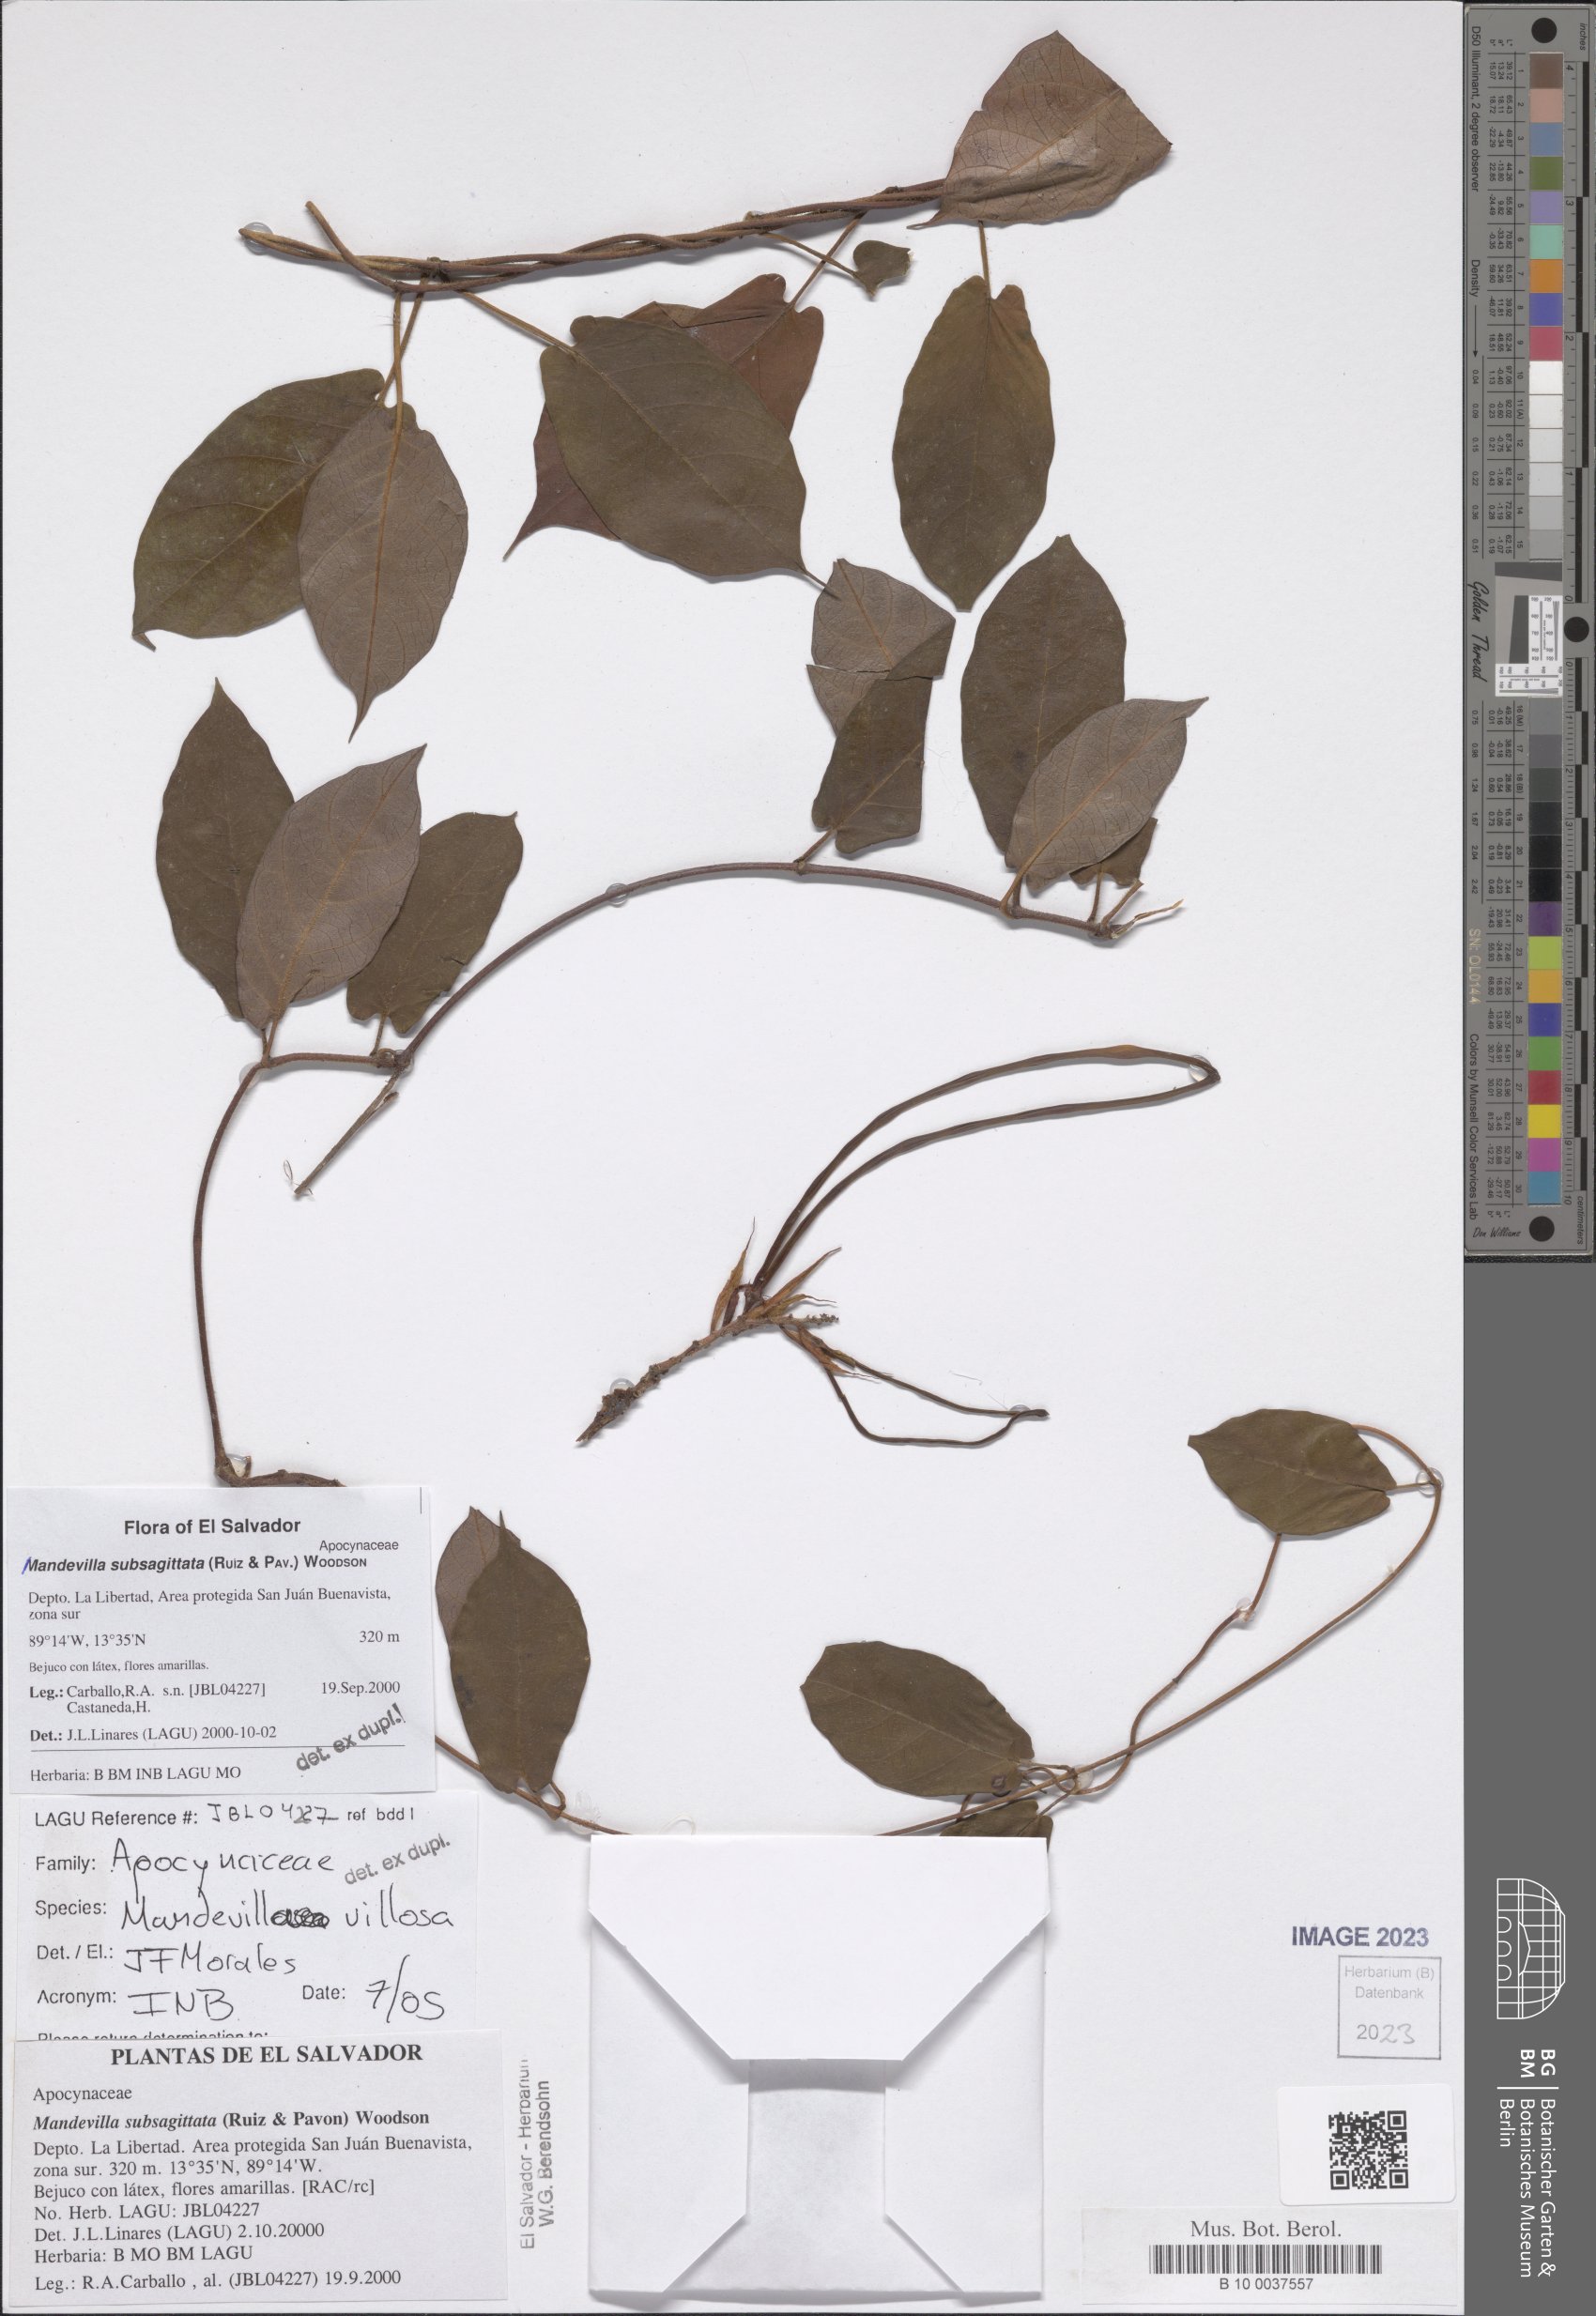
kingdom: Plantae
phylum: Tracheophyta
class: Magnoliopsida
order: Gentianales
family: Apocynaceae
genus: Mandevilla
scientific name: Mandevilla subsagittata
